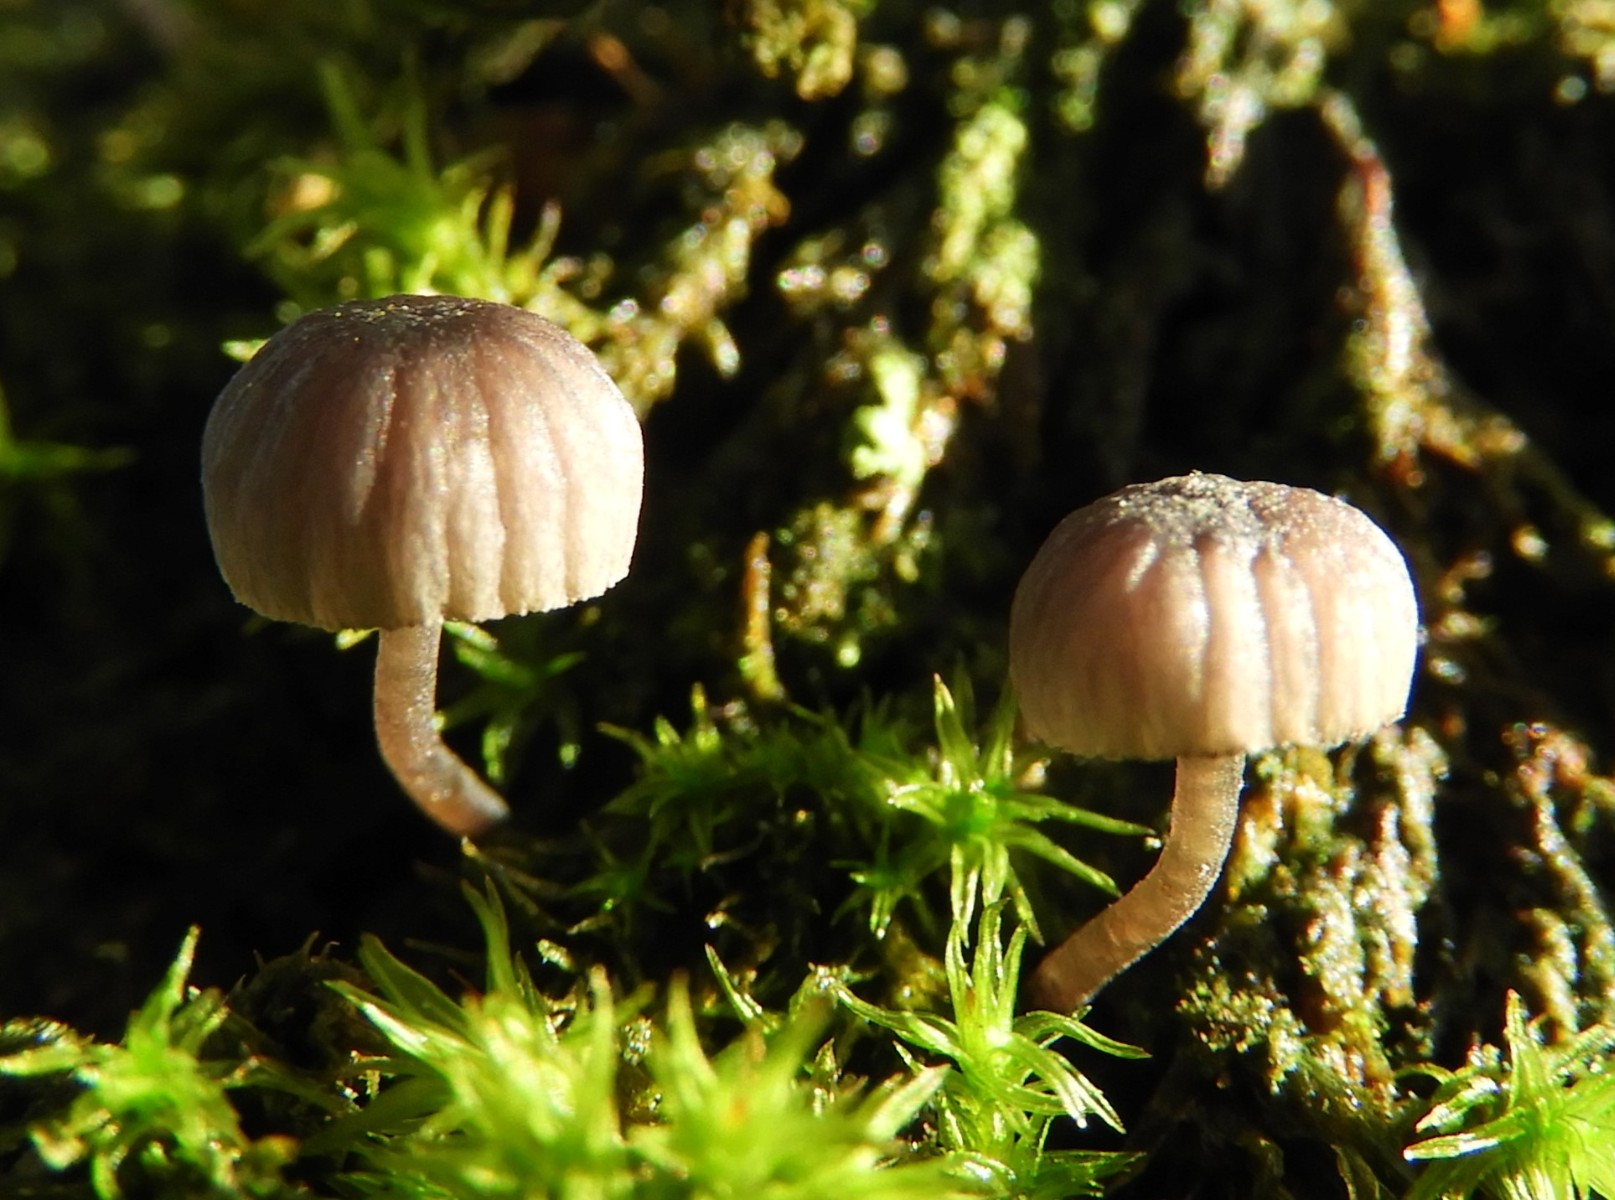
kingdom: Fungi
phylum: Basidiomycota
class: Agaricomycetes
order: Agaricales
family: Mycenaceae
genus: Mycena
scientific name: Mycena meliigena
